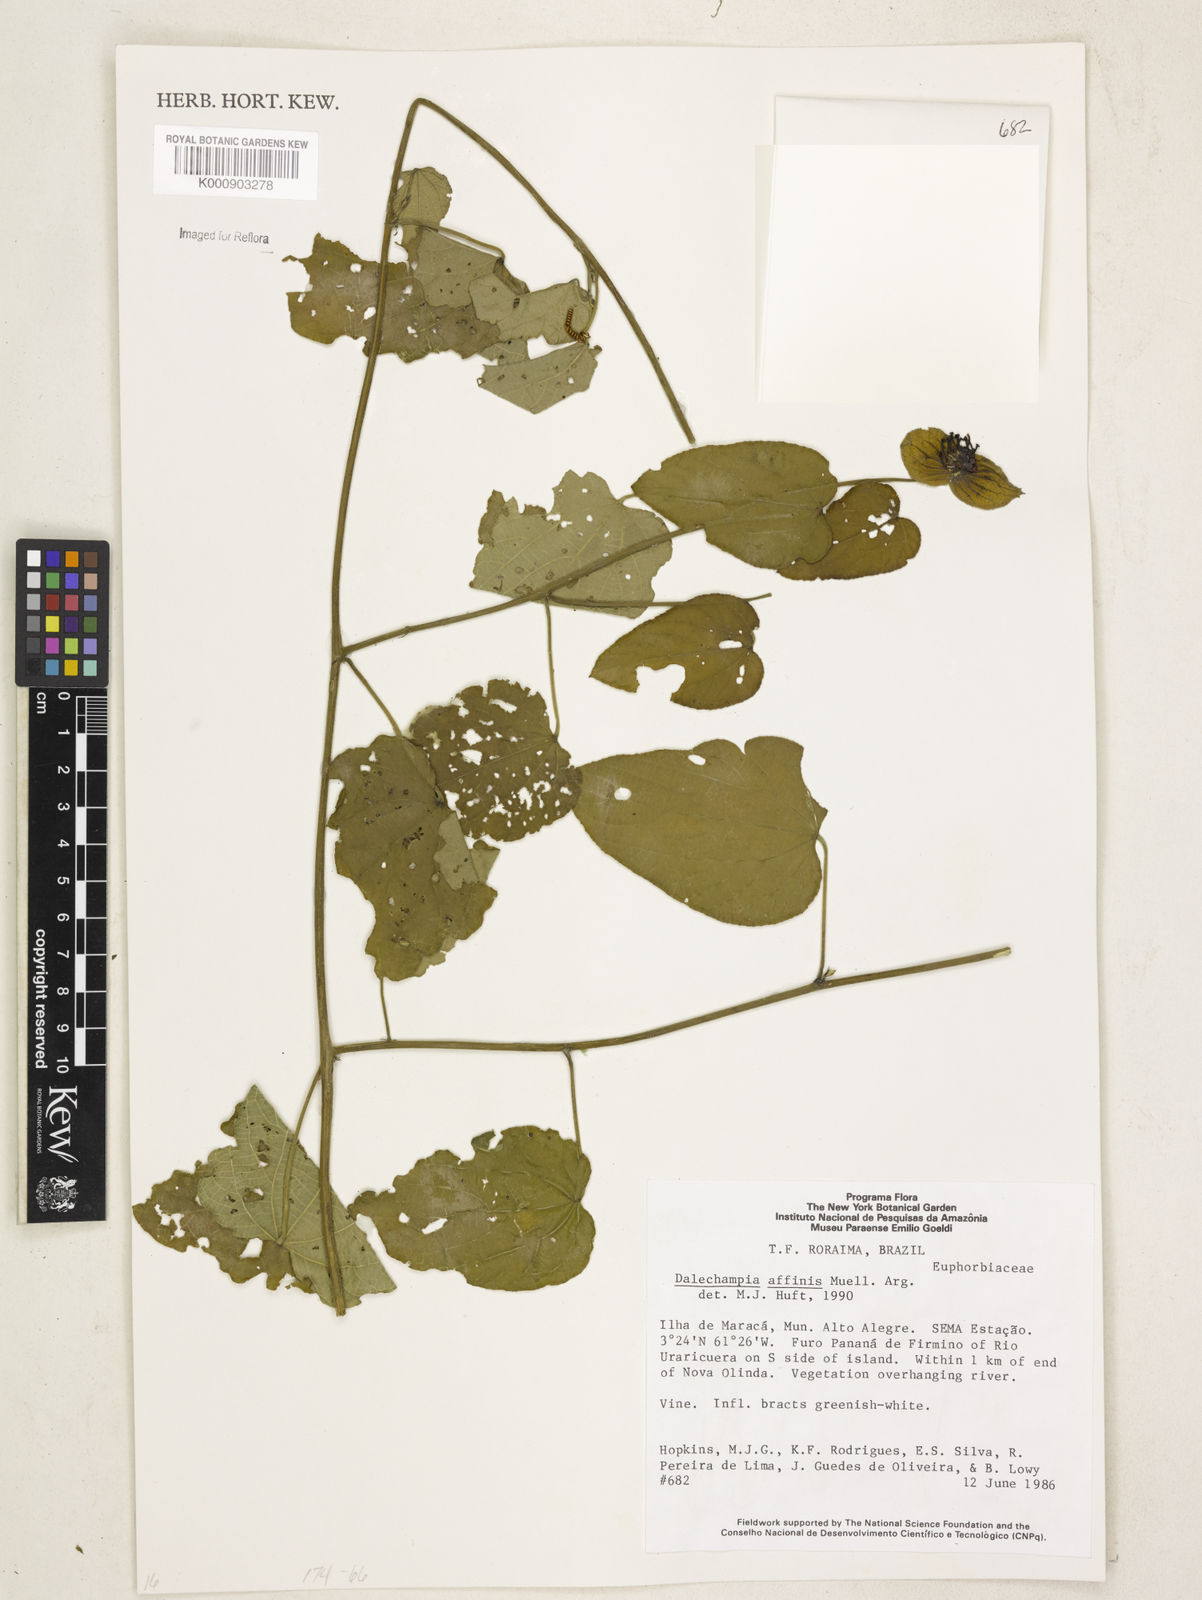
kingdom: Plantae
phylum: Tracheophyta
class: Magnoliopsida
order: Malpighiales
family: Euphorbiaceae
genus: Dalechampia
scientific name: Dalechampia
